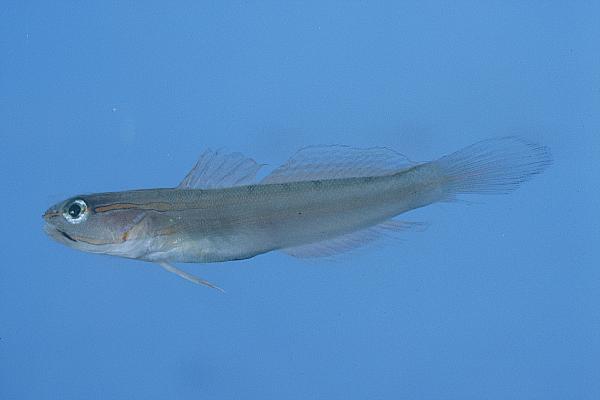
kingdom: Animalia
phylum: Chordata
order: Perciformes
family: Gobiidae
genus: Amblygobius
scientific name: Amblygobius nocturnus
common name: Nocturn goby
